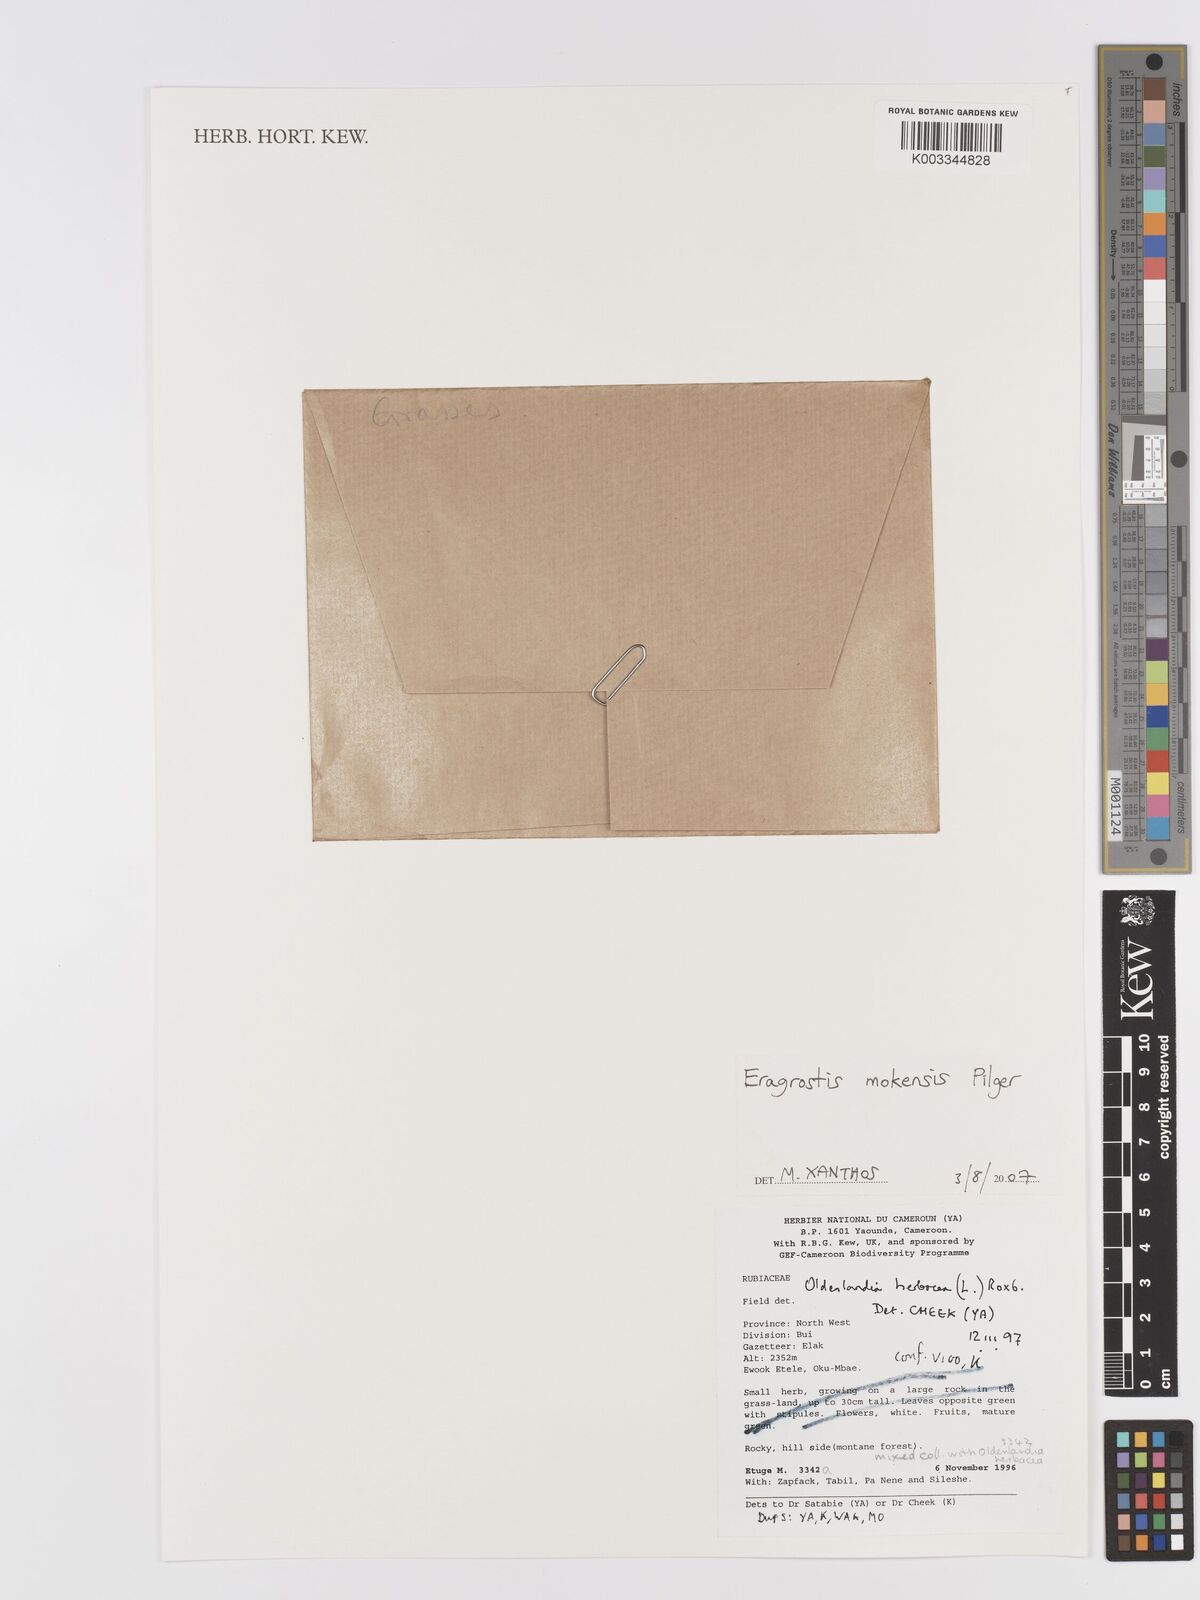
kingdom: Plantae
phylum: Tracheophyta
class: Liliopsida
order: Poales
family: Poaceae
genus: Eragrostis
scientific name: Eragrostis mokensis
